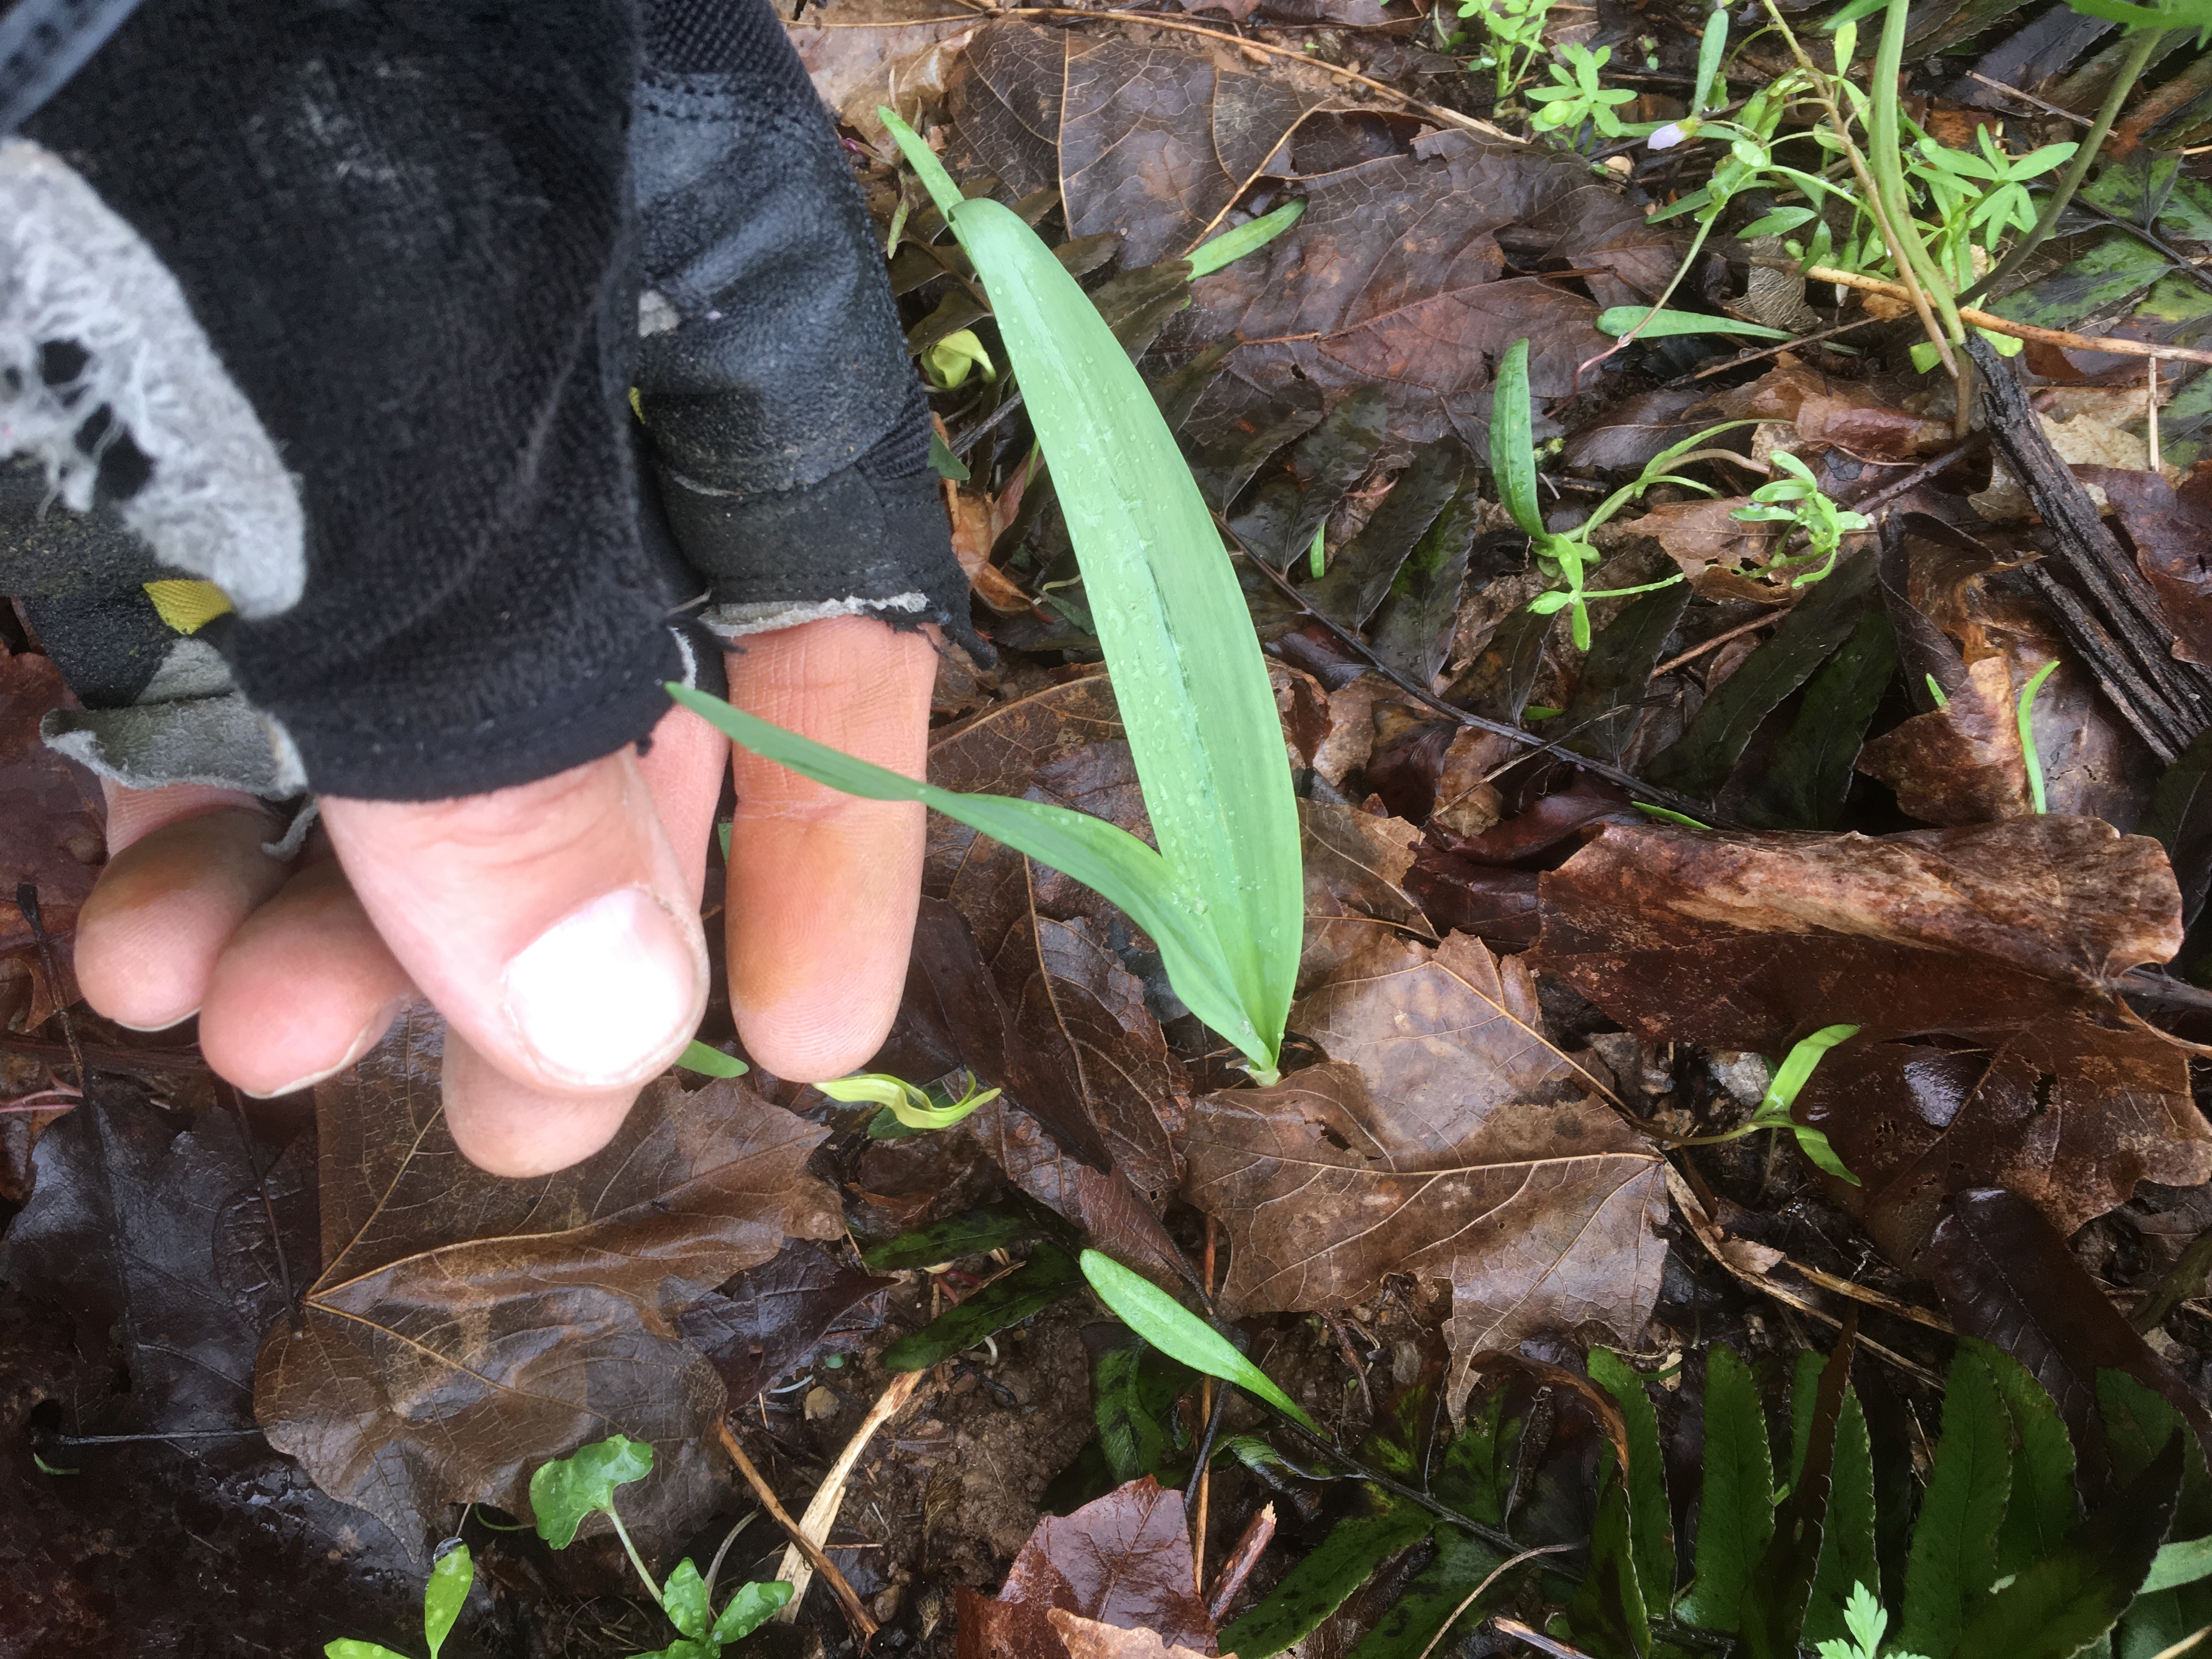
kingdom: Plantae
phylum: Tracheophyta
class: Liliopsida
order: Asparagales
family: Amaryllidaceae
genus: Allium
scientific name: Allium tricoccum
